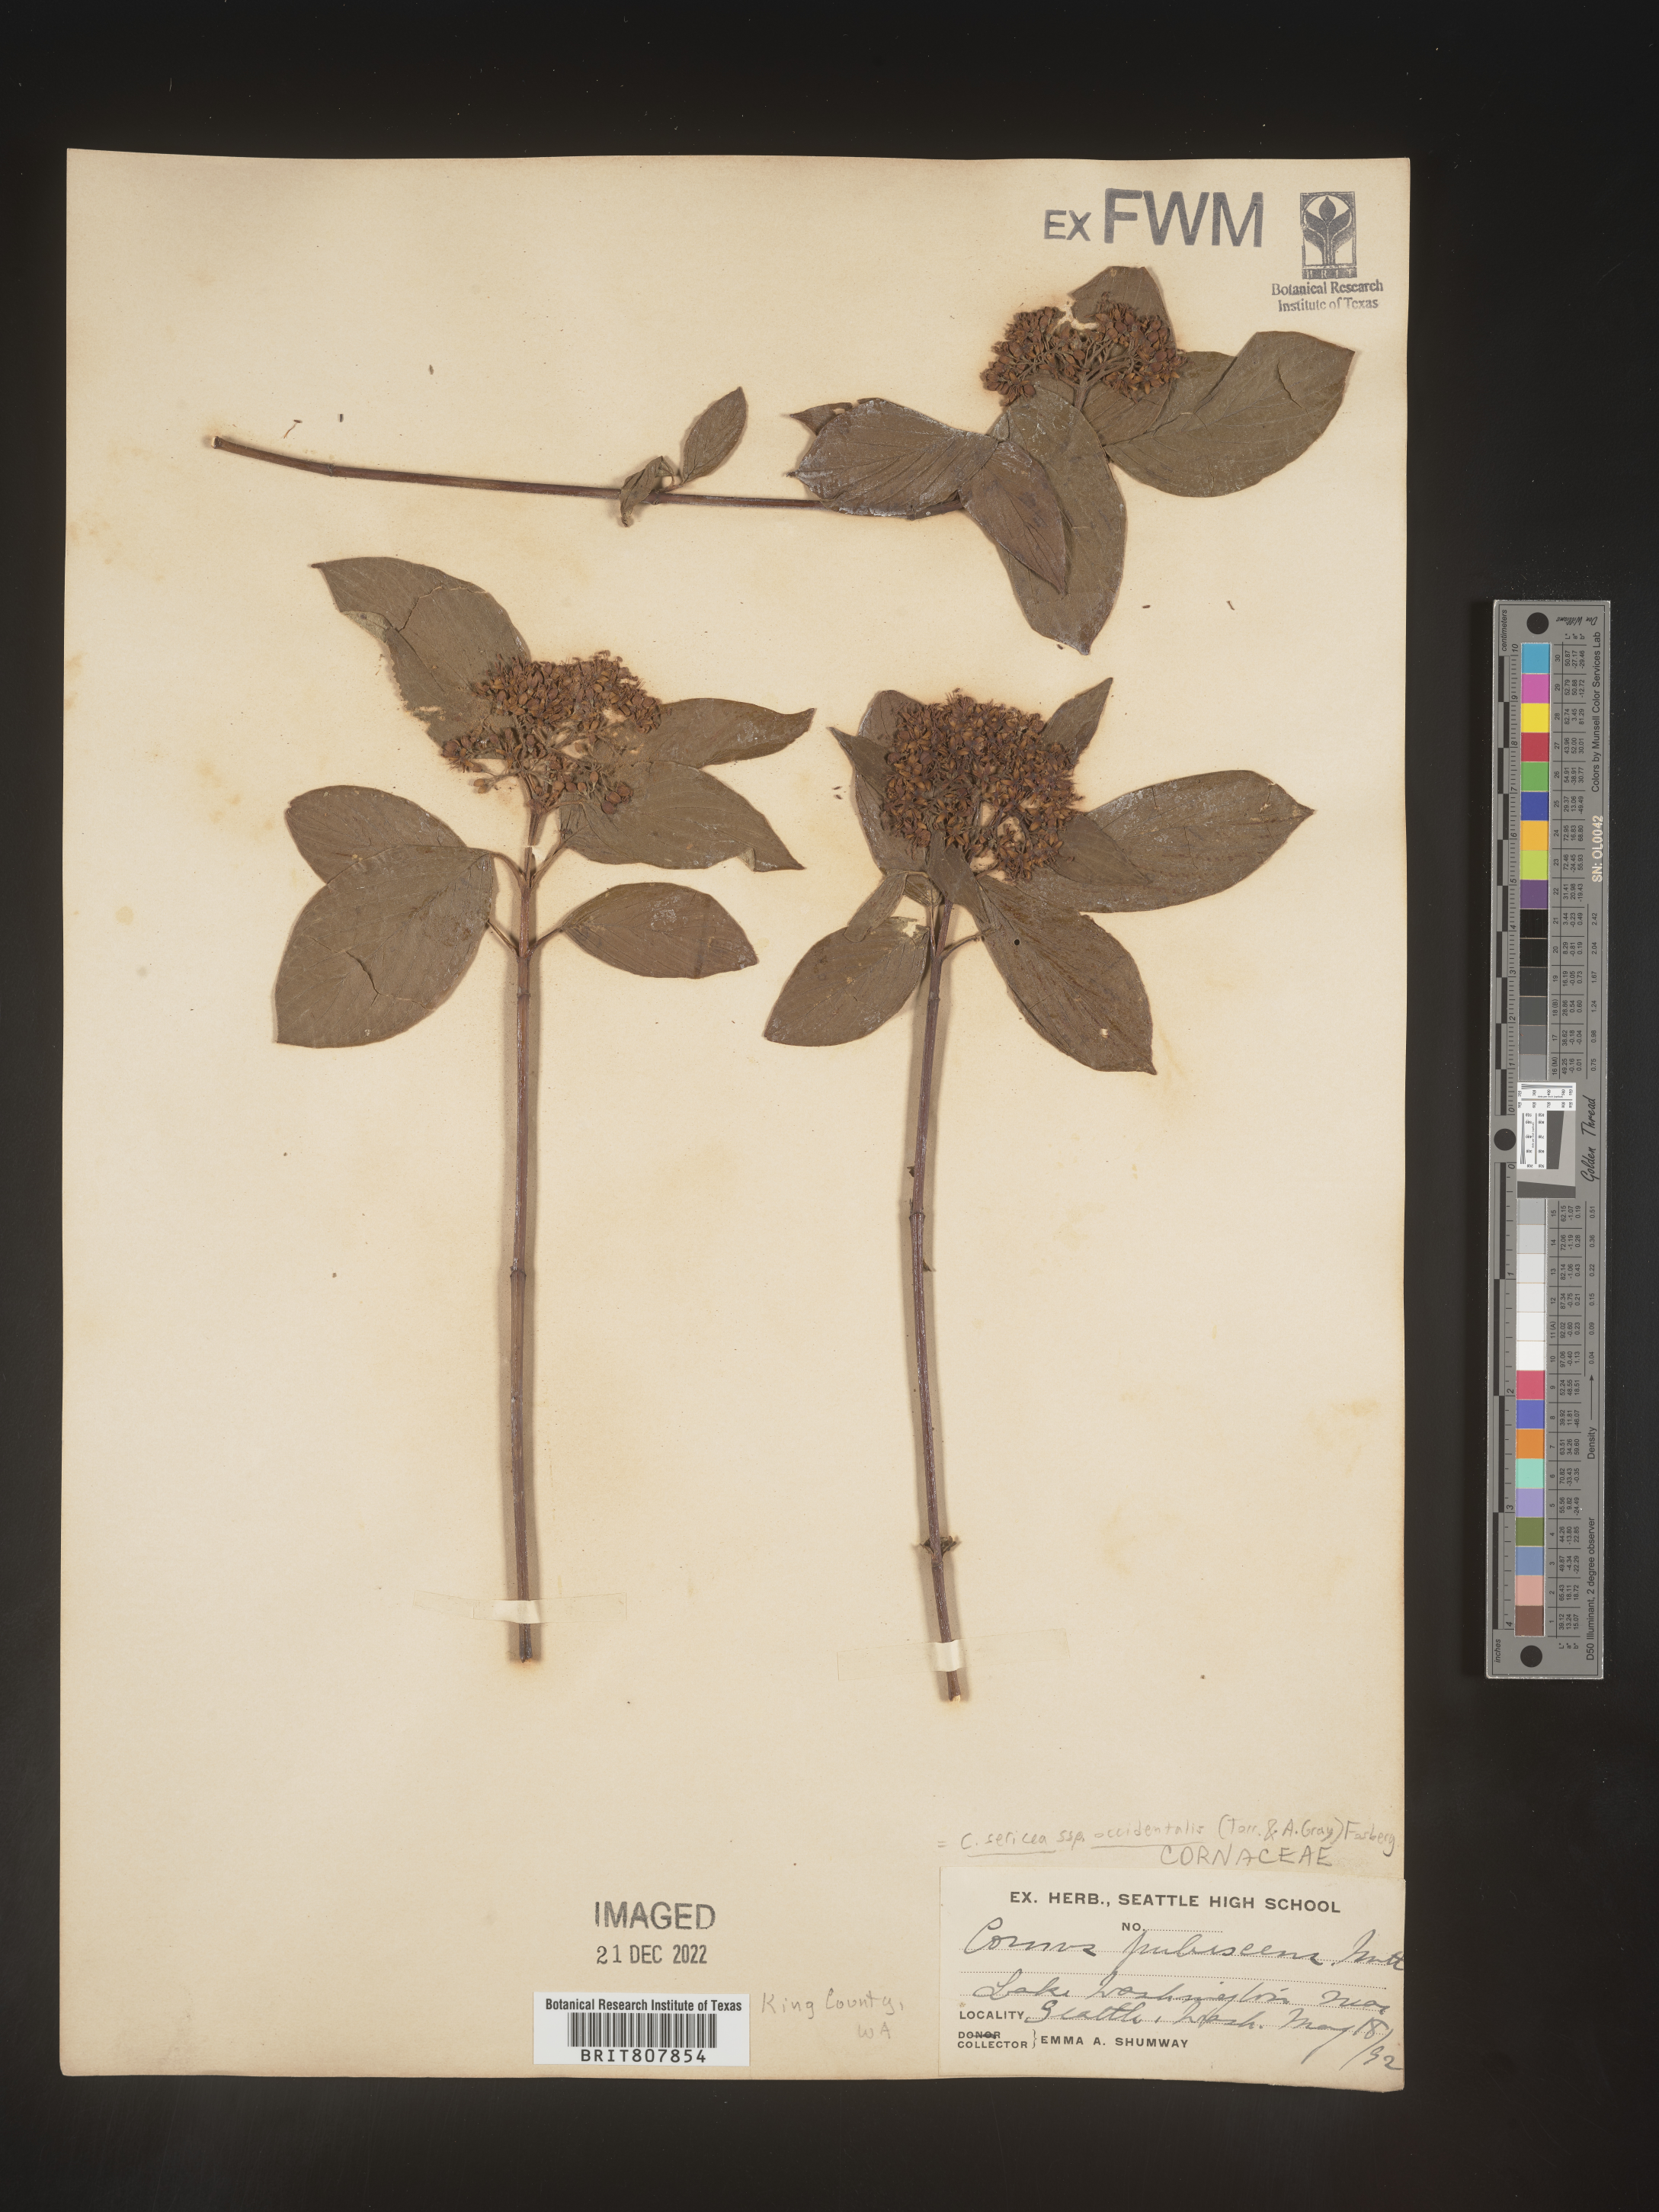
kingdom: Plantae
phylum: Tracheophyta
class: Magnoliopsida
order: Cornales
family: Cornaceae
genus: Cornus
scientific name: Cornus
